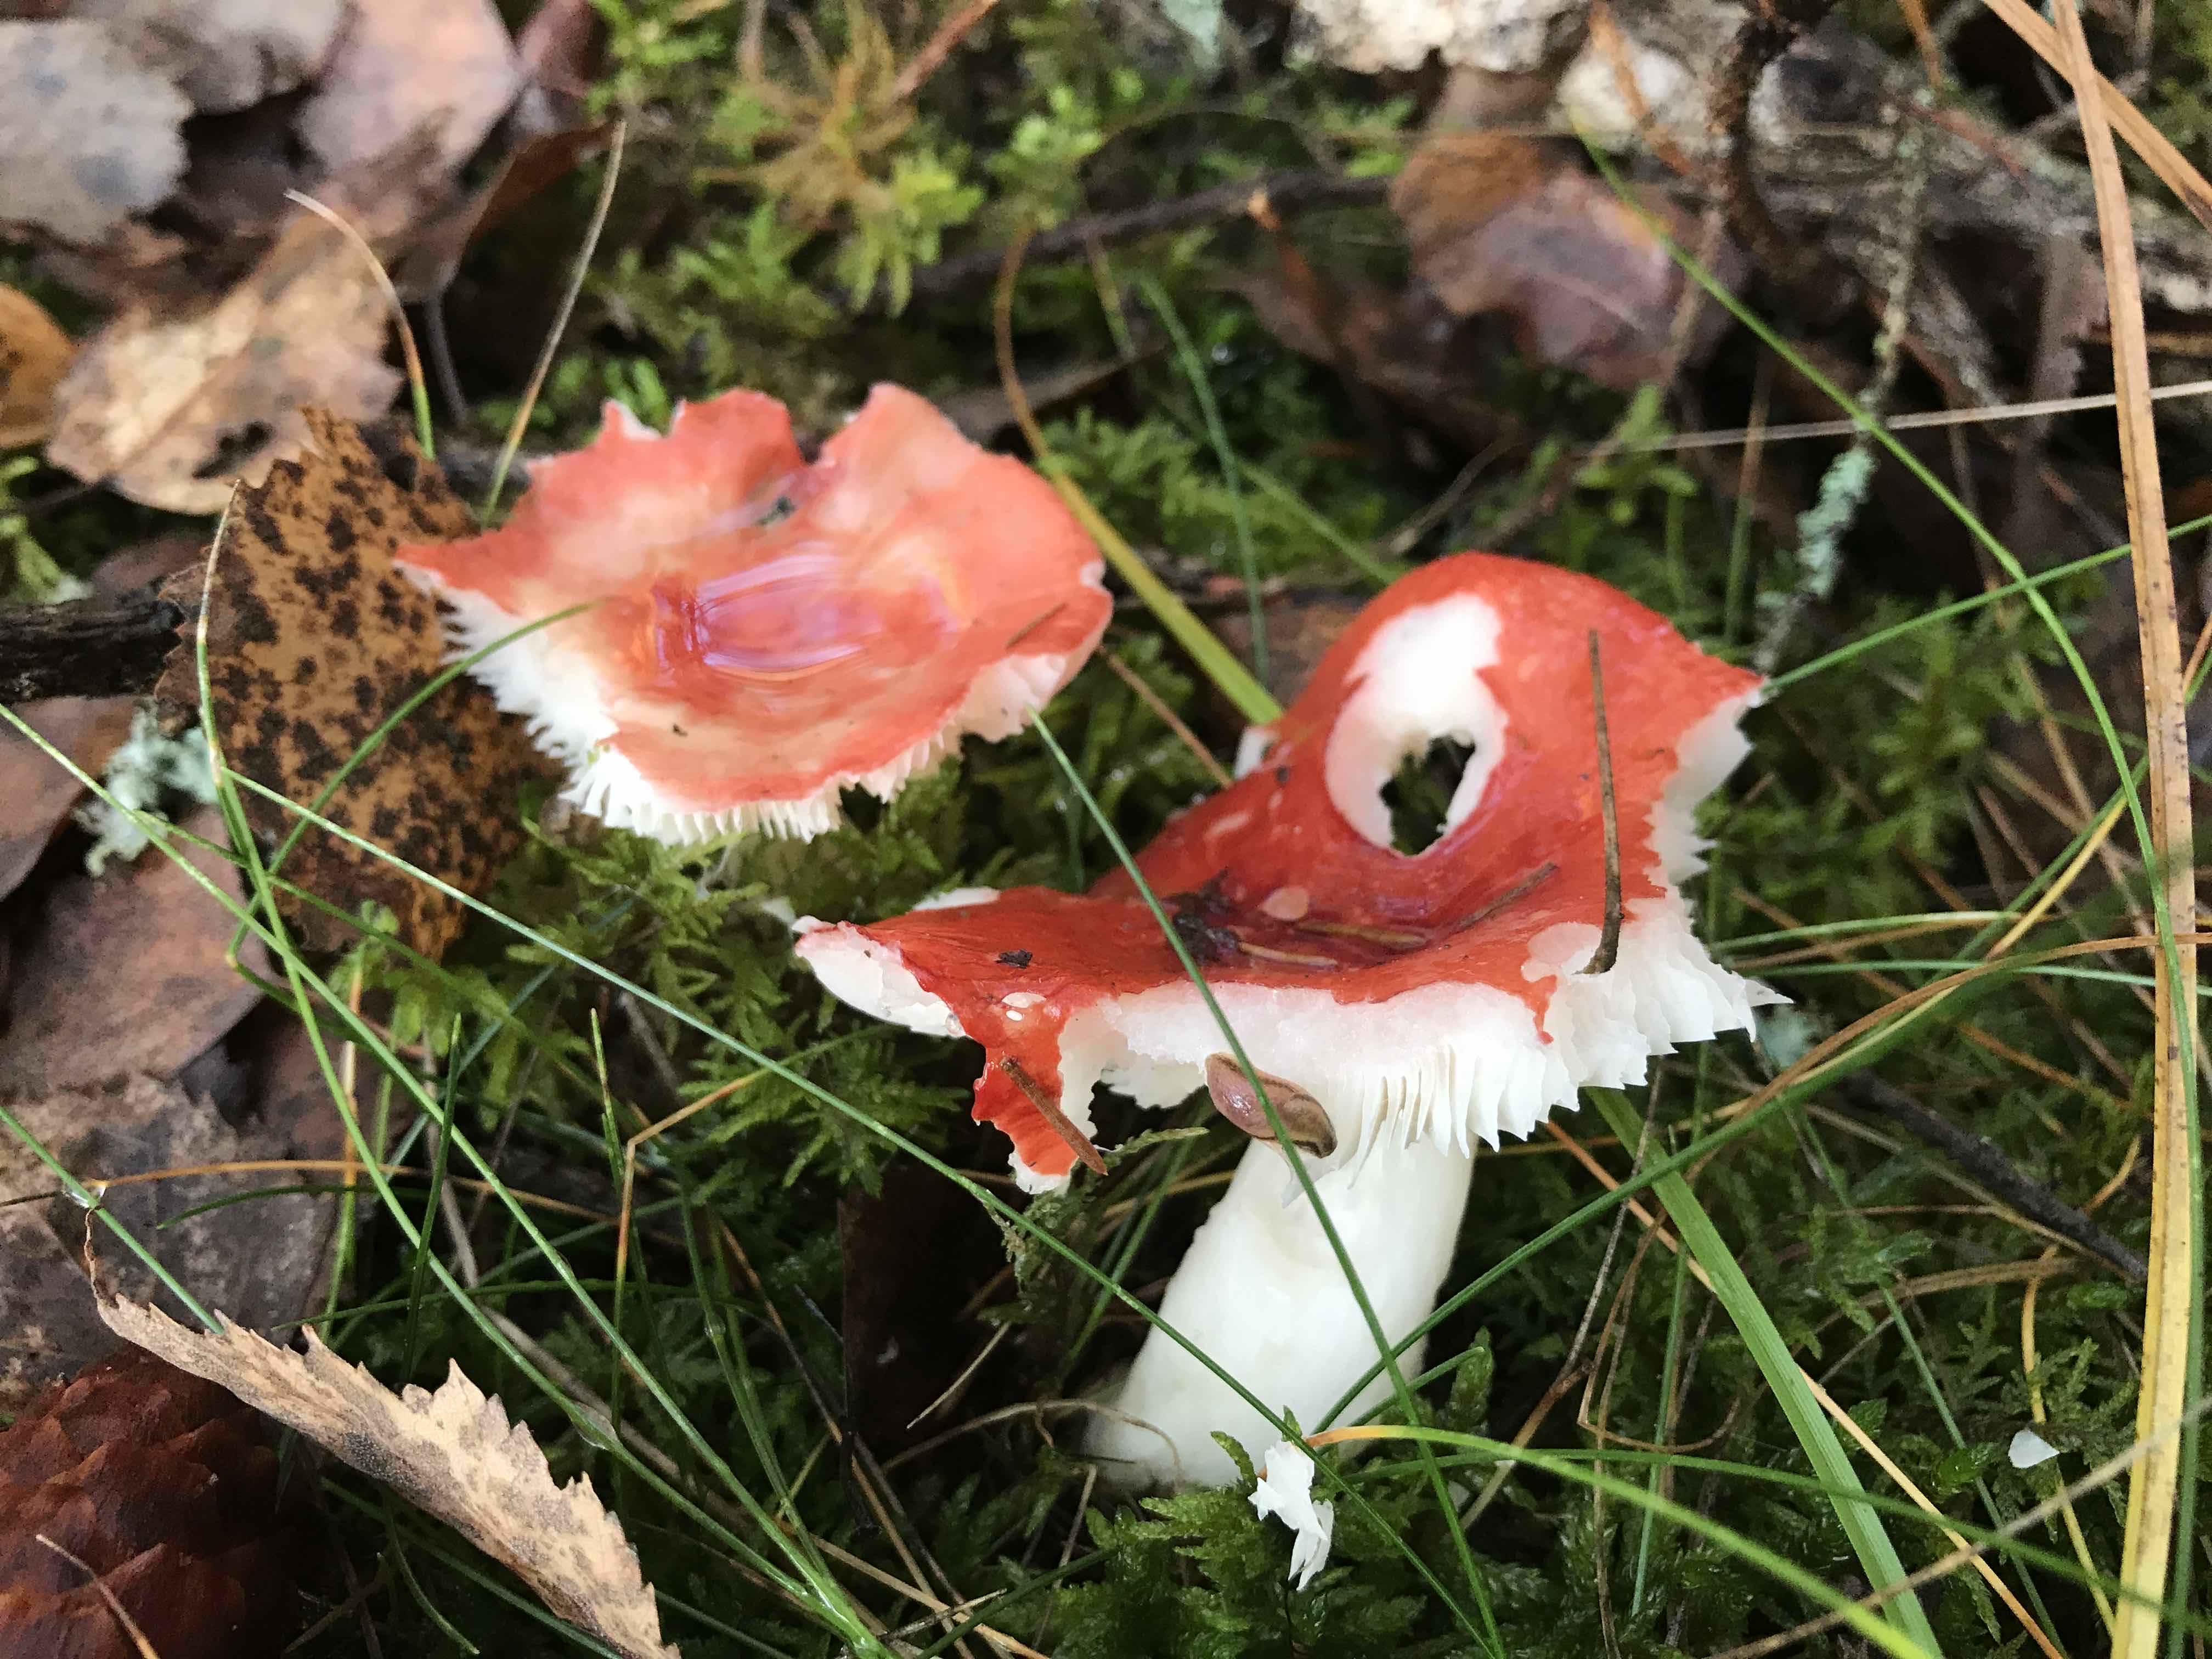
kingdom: Fungi
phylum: Basidiomycota
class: Agaricomycetes
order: Russulales
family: Russulaceae
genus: Russula
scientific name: Russula emetica
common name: stor gift-skørhat
